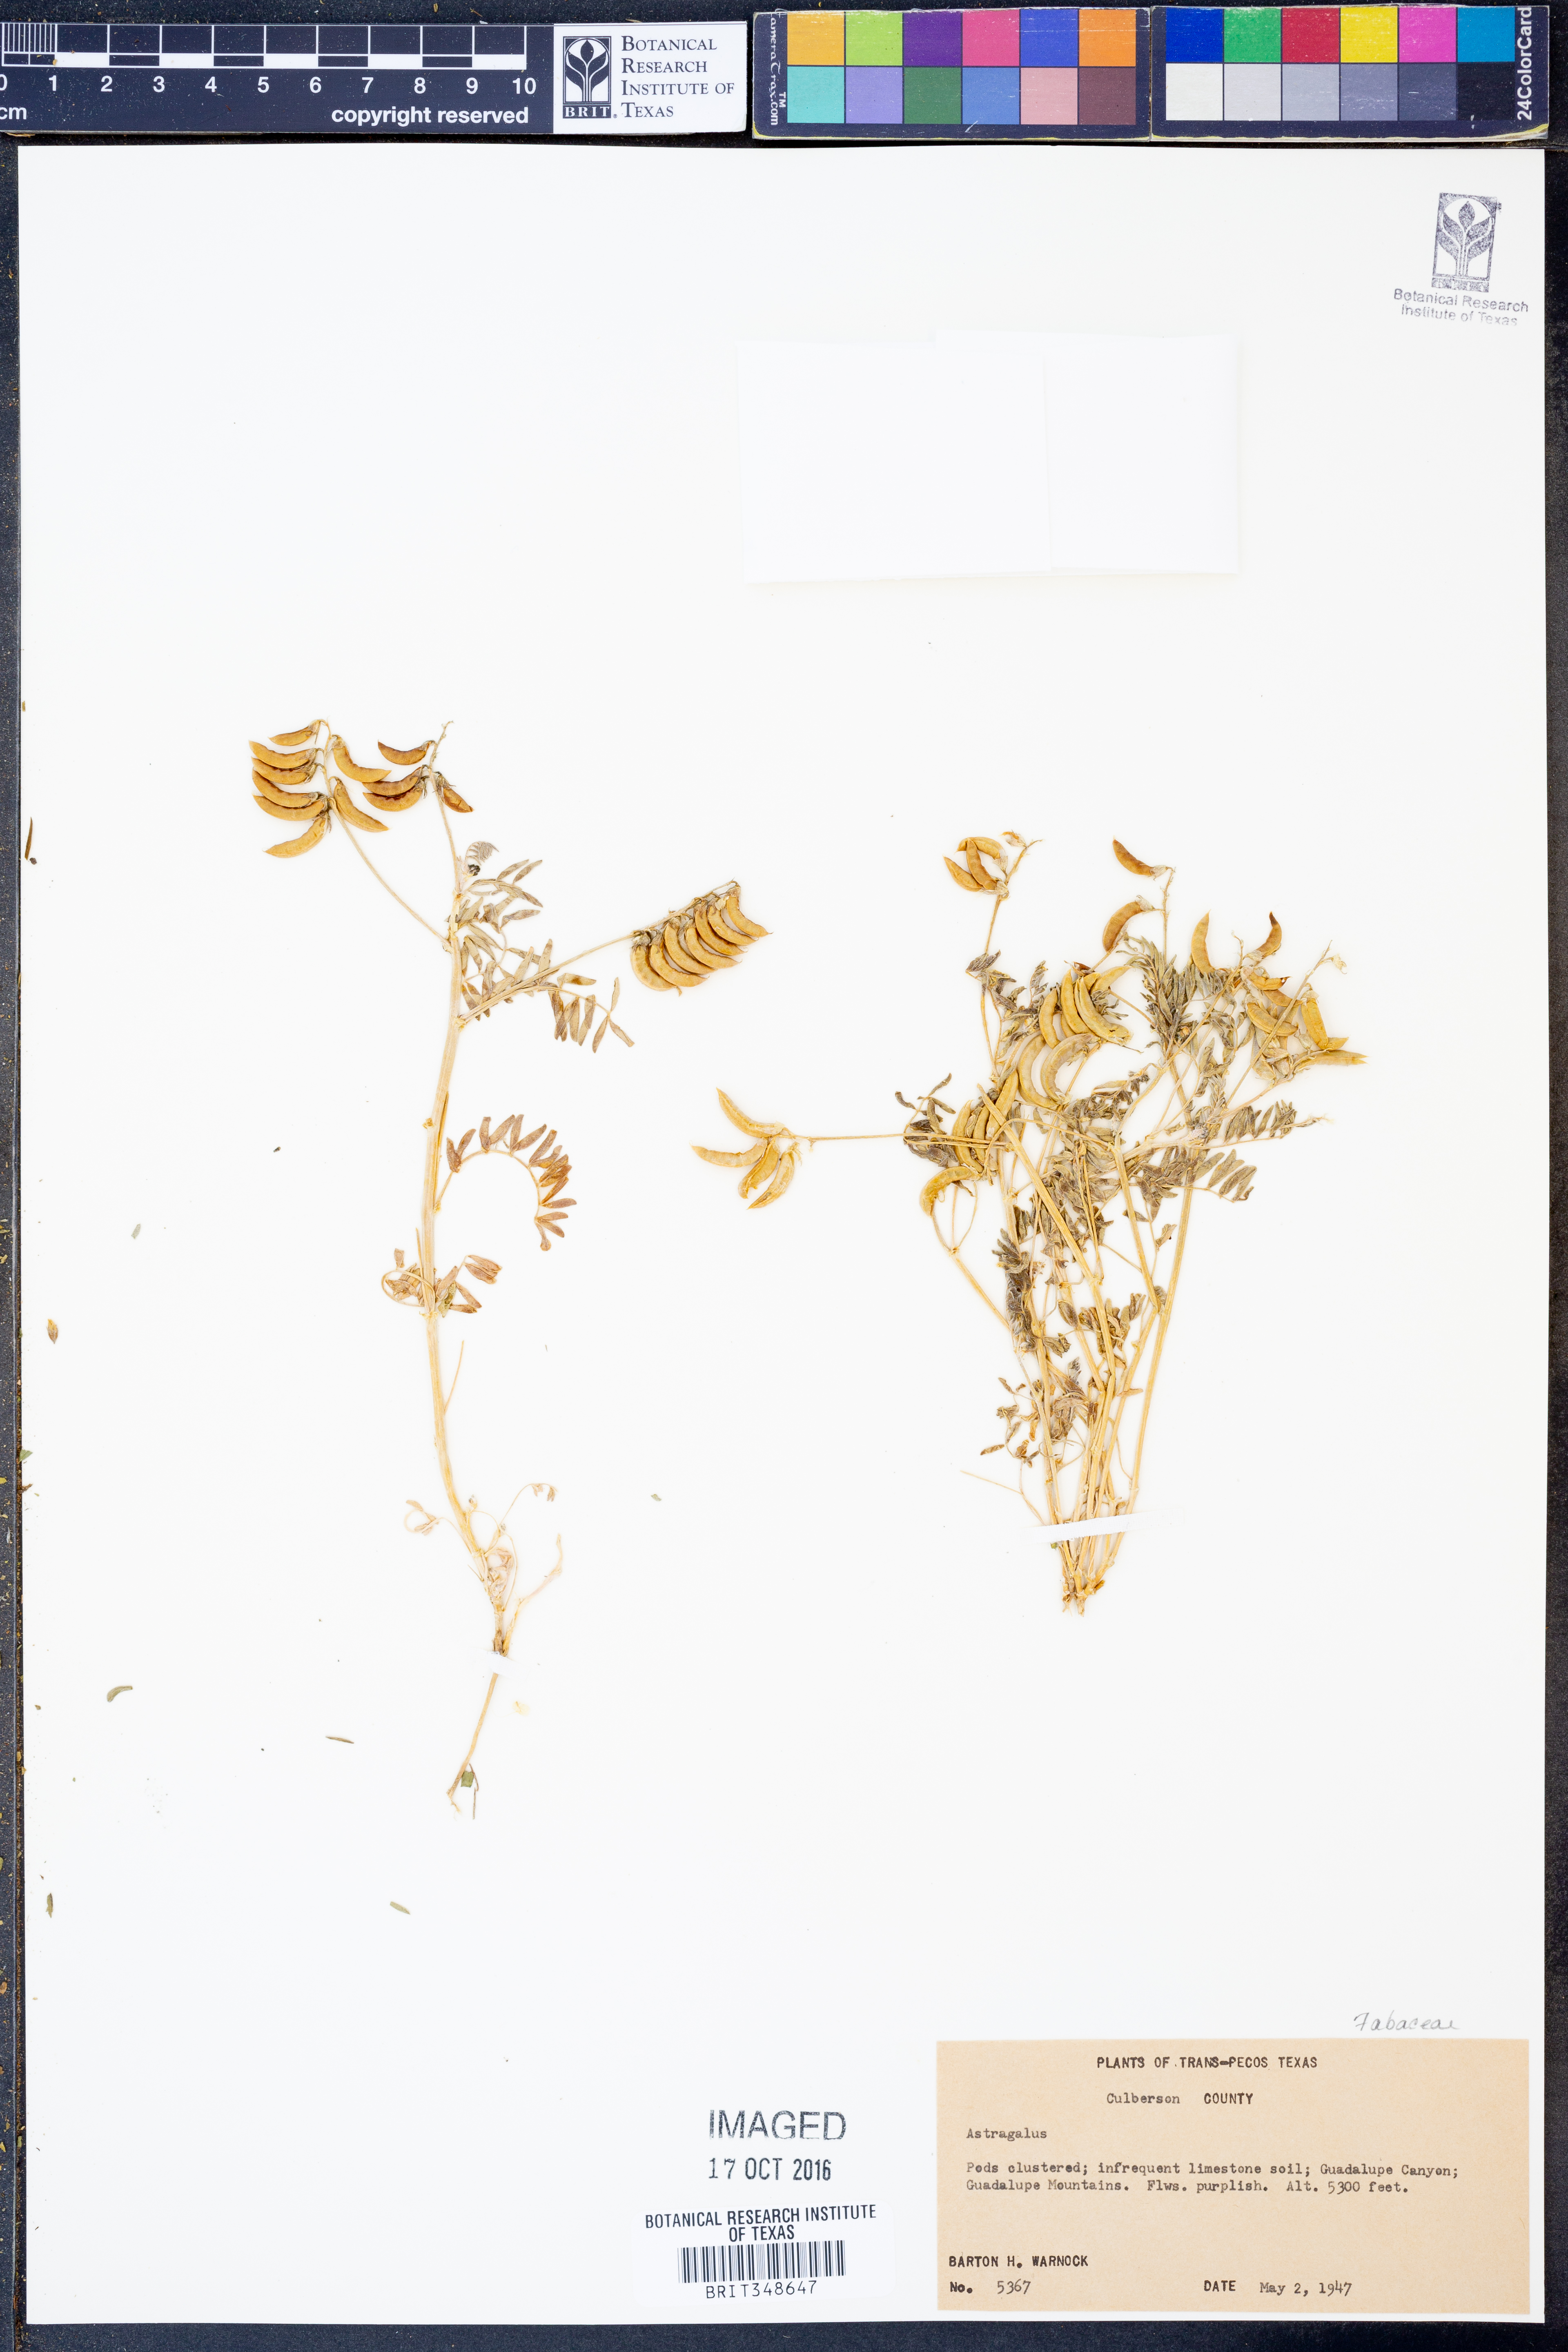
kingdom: Plantae
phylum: Tracheophyta
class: Magnoliopsida
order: Fabales
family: Fabaceae
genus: Astragalus
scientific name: Astragalus
